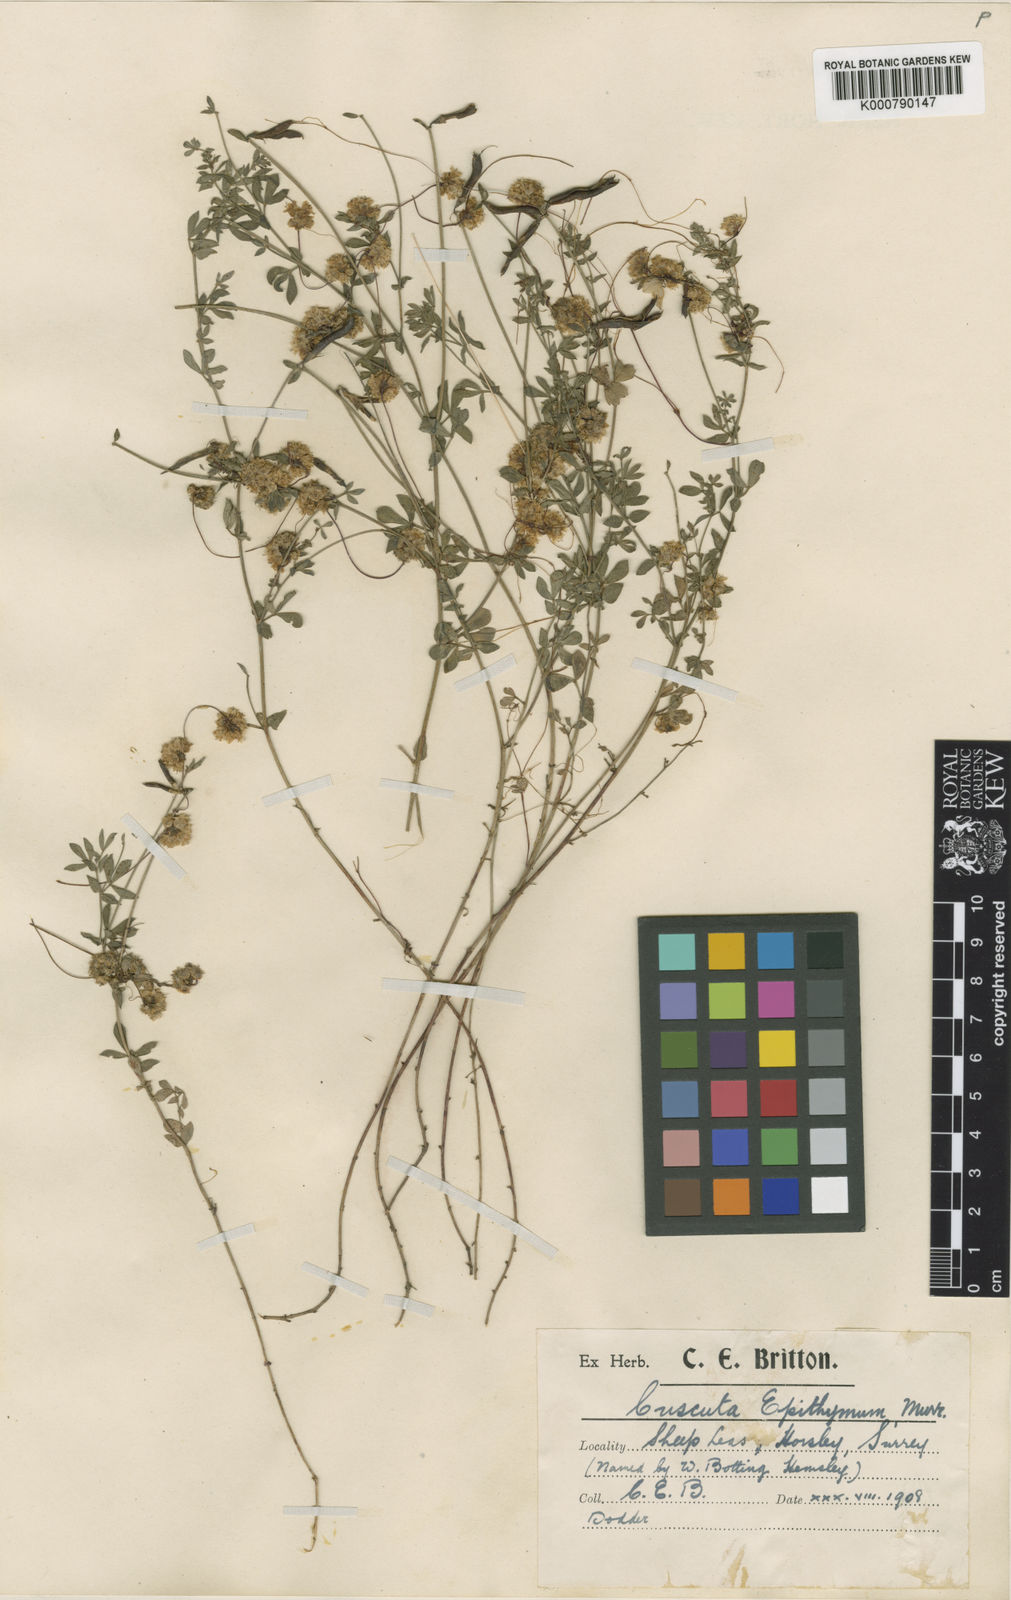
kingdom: Plantae
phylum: Tracheophyta
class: Magnoliopsida
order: Solanales
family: Convolvulaceae
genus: Cuscuta
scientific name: Cuscuta epithymum
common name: Clover dodder
